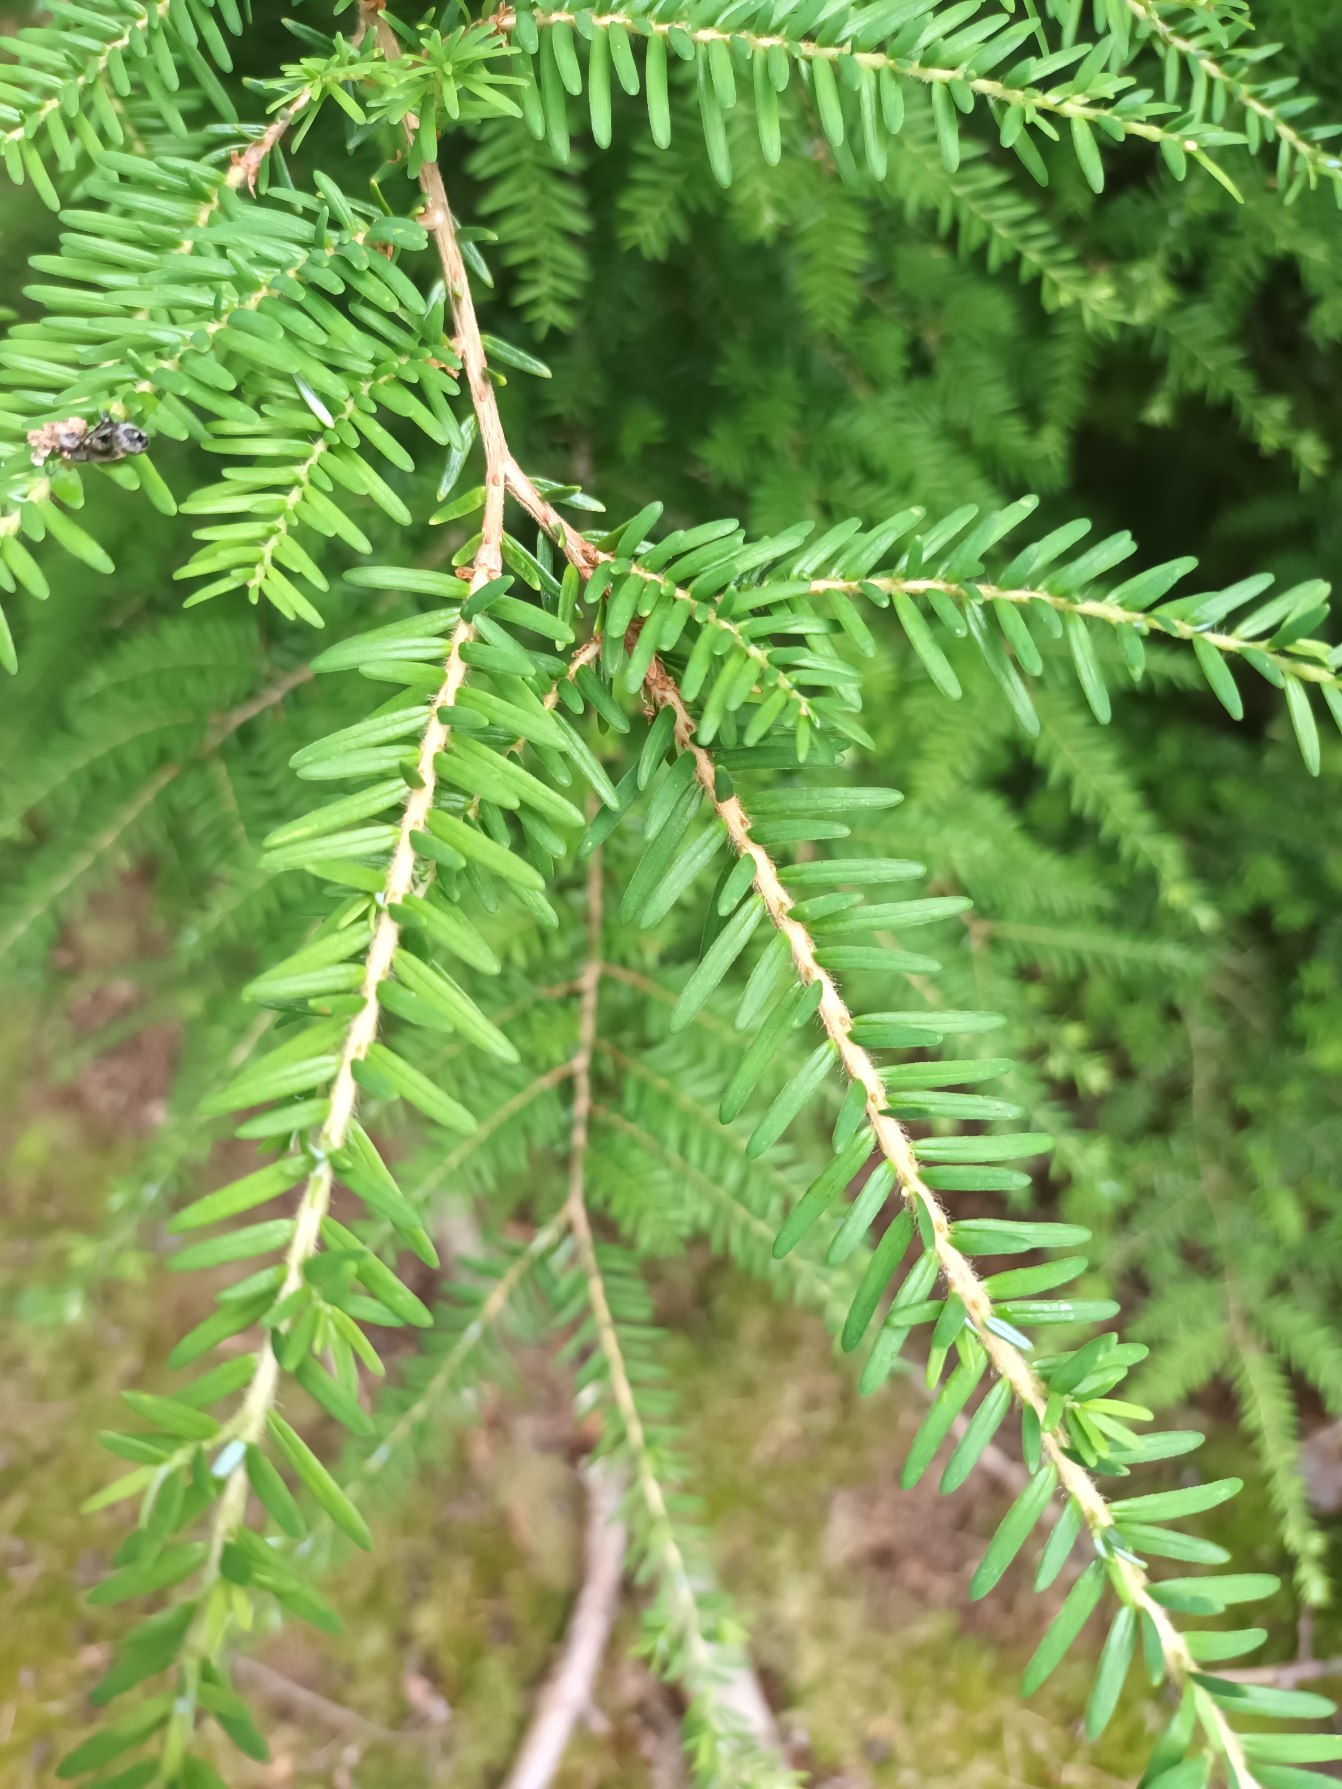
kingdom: Plantae
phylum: Tracheophyta
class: Pinopsida
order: Pinales
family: Pinaceae
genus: Tsuga
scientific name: Tsuga heterophylla
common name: Skarntydegran
